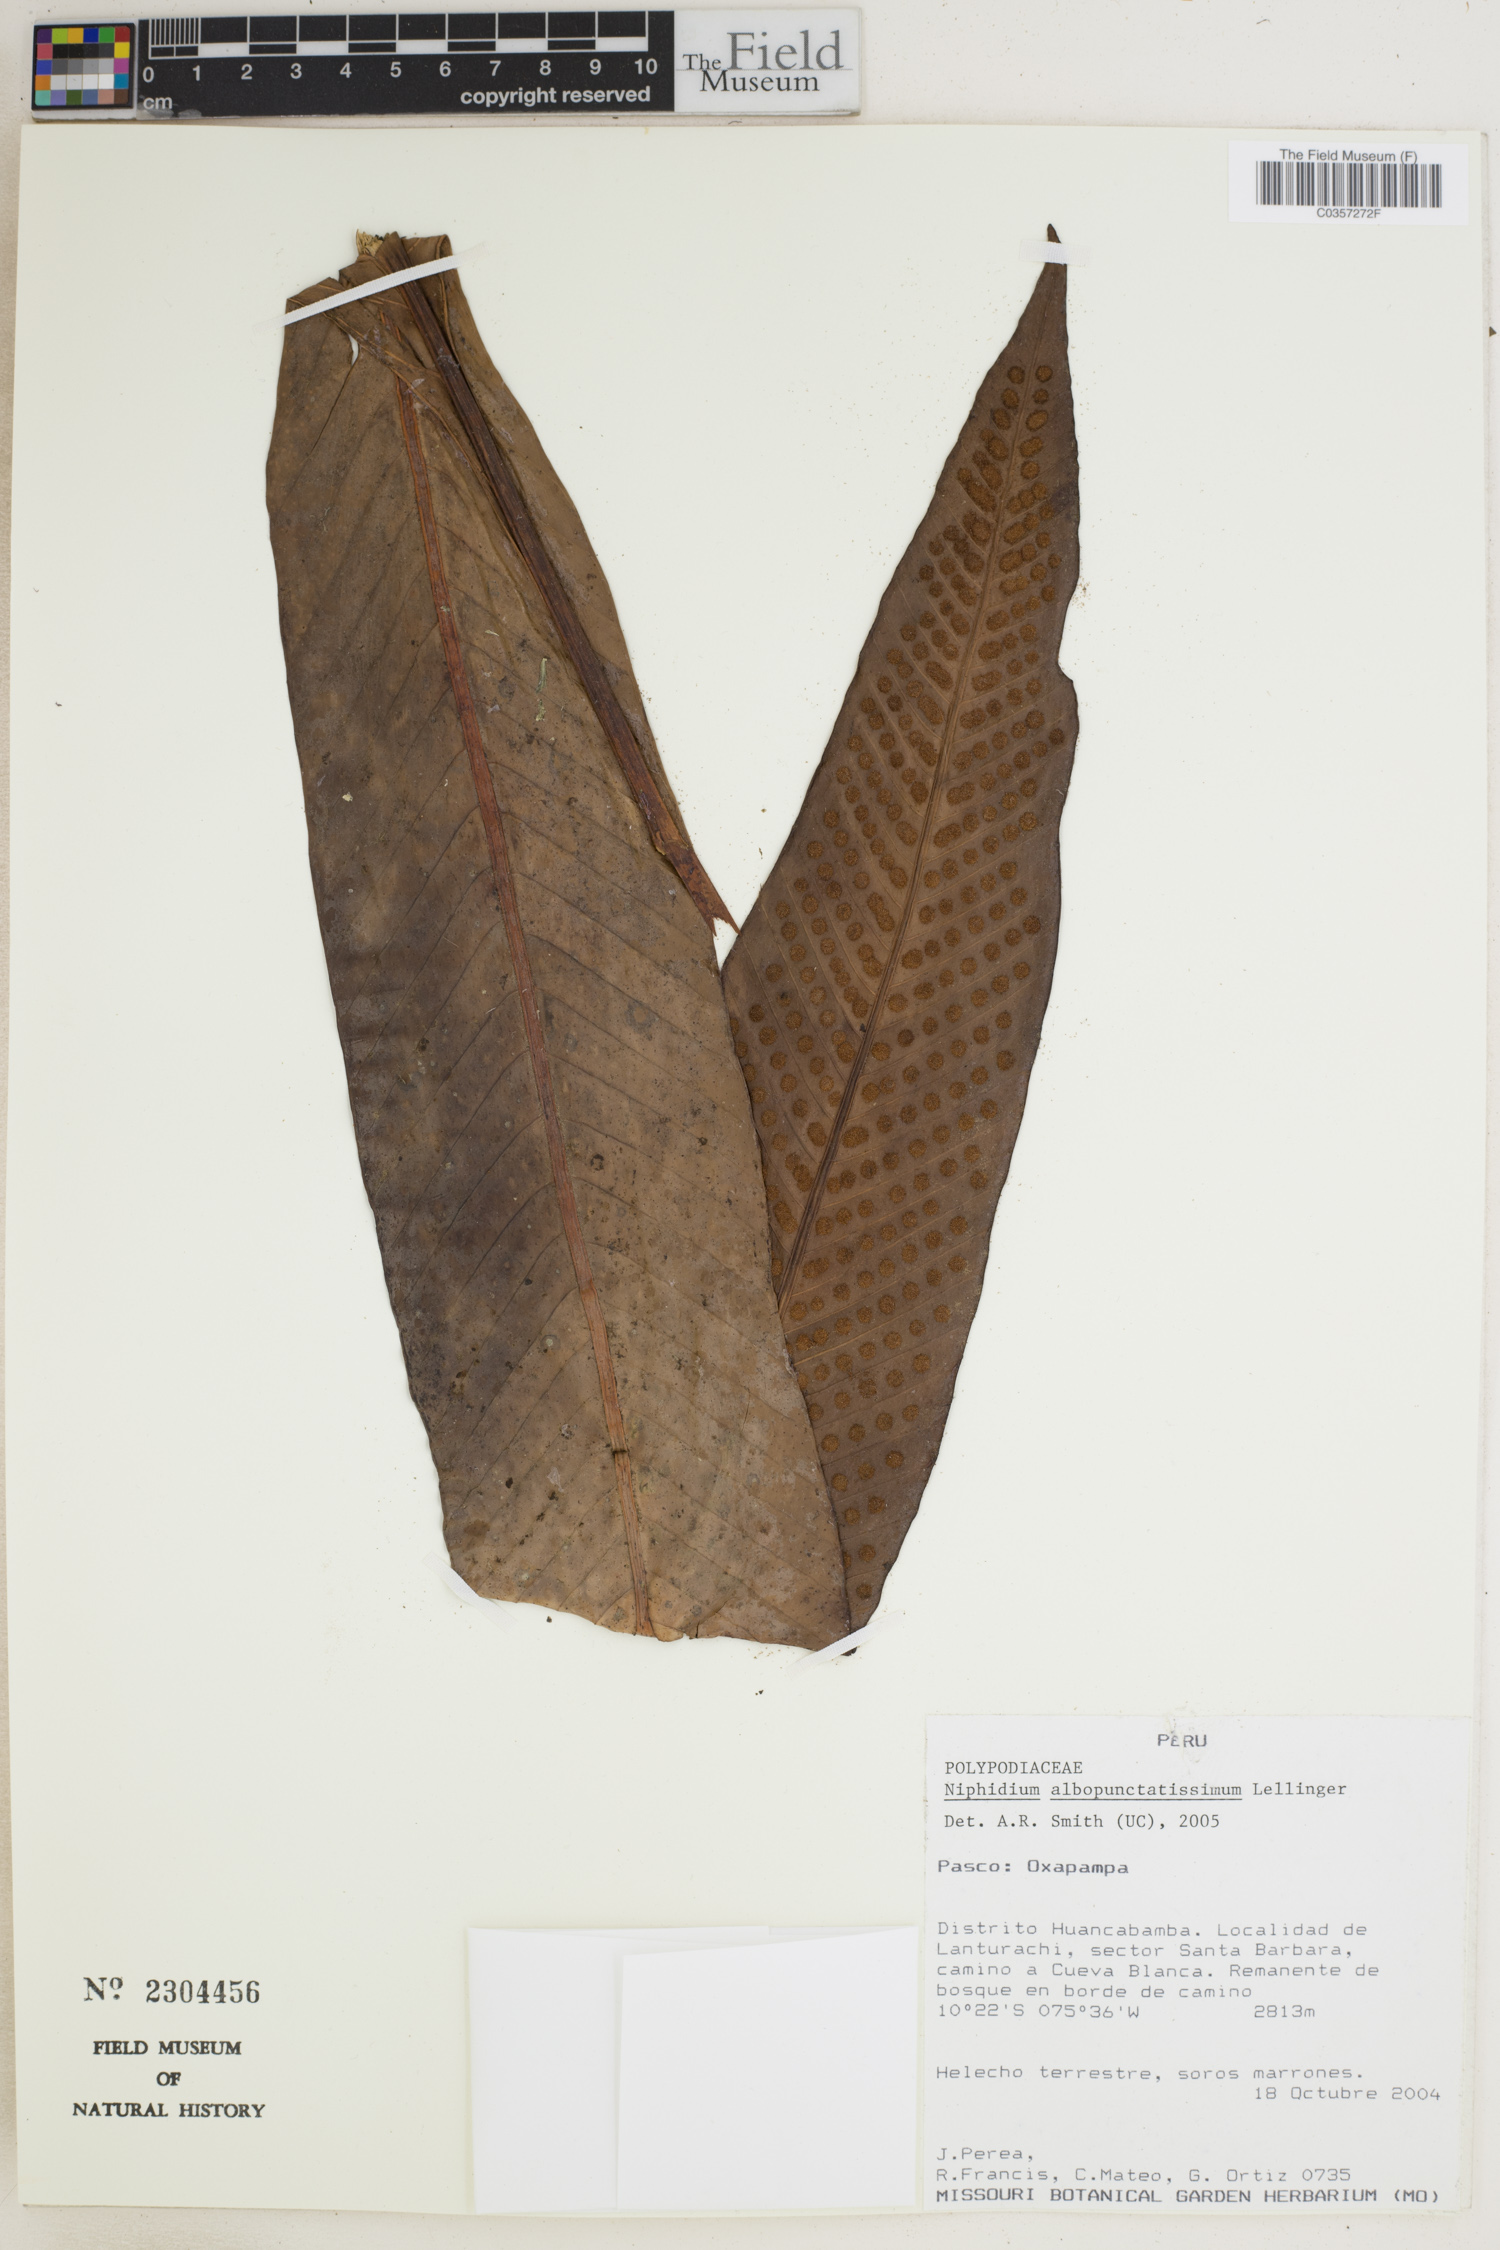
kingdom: Plantae
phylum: Tracheophyta
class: Polypodiopsida
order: Polypodiales
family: Polypodiaceae
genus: Niphidium
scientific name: Niphidium albopunctatissimum
